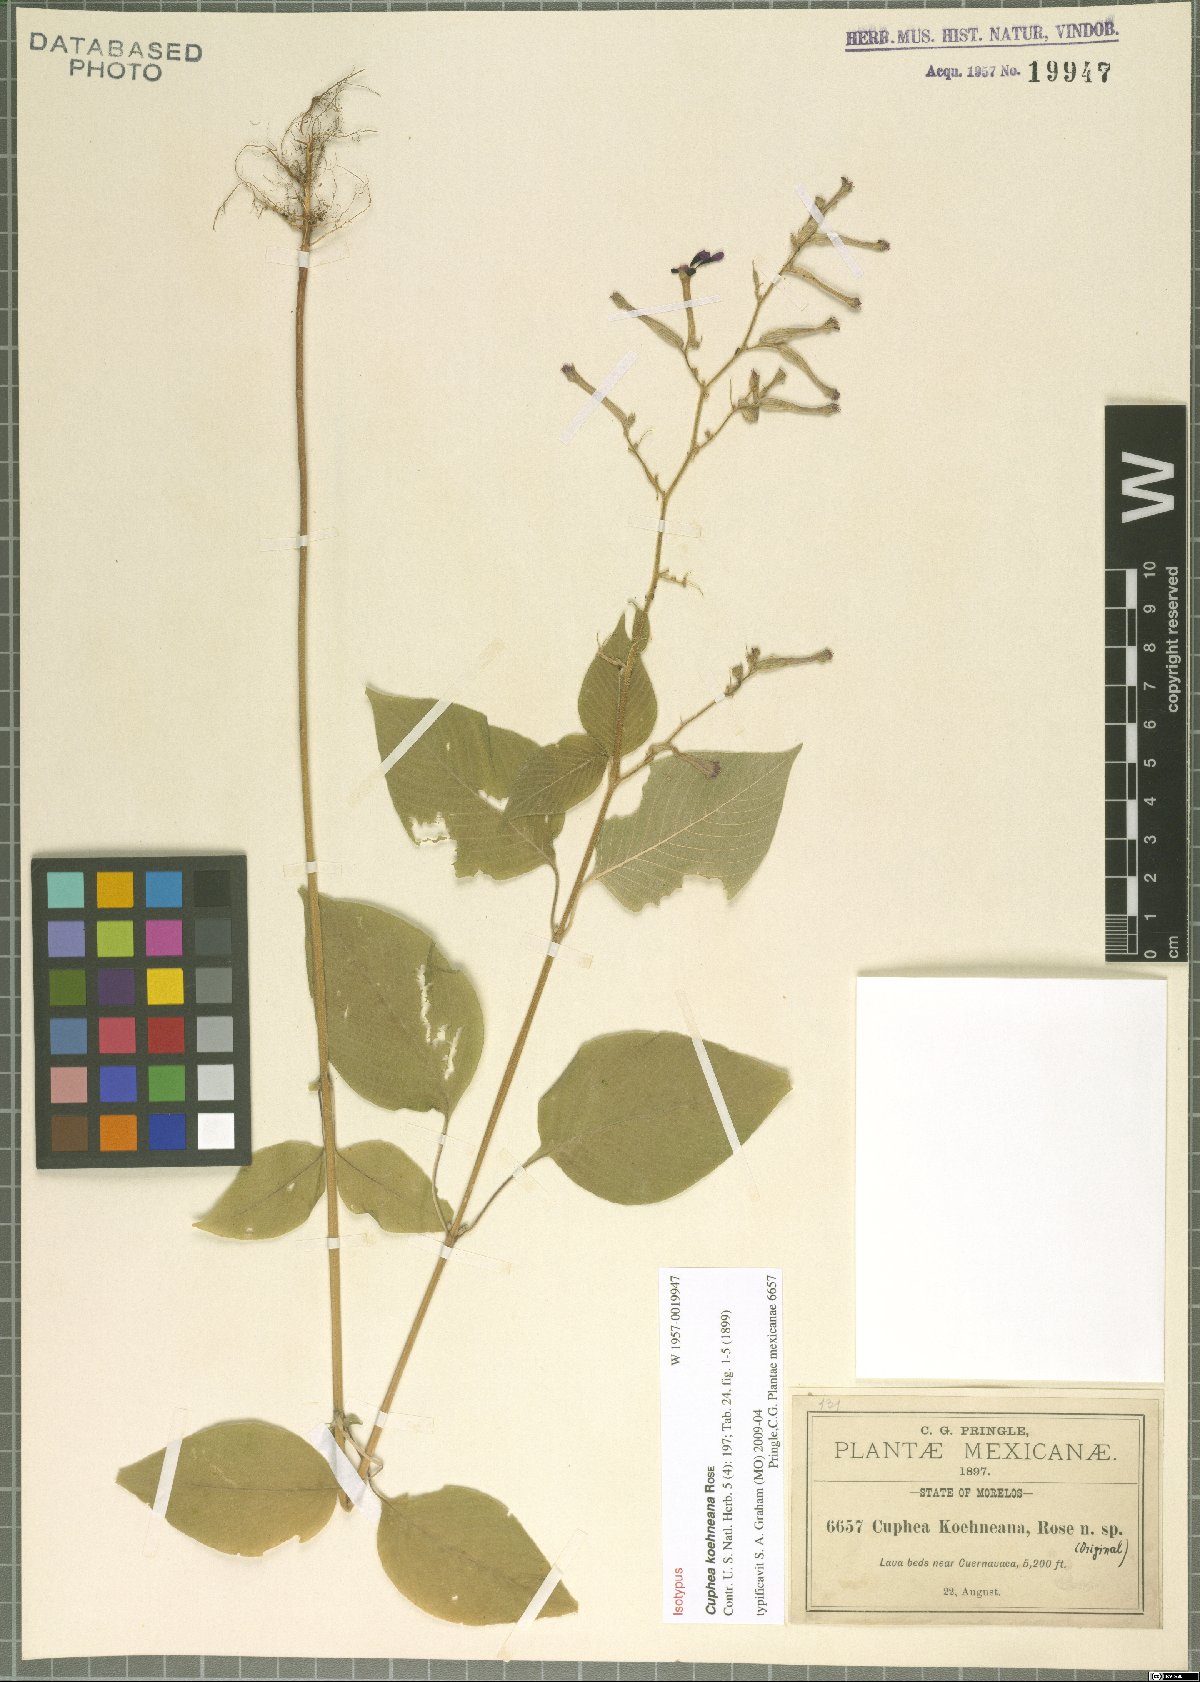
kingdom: Plantae
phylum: Tracheophyta
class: Magnoliopsida
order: Myrtales
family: Lythraceae
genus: Cuphea
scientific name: Cuphea koehneana
